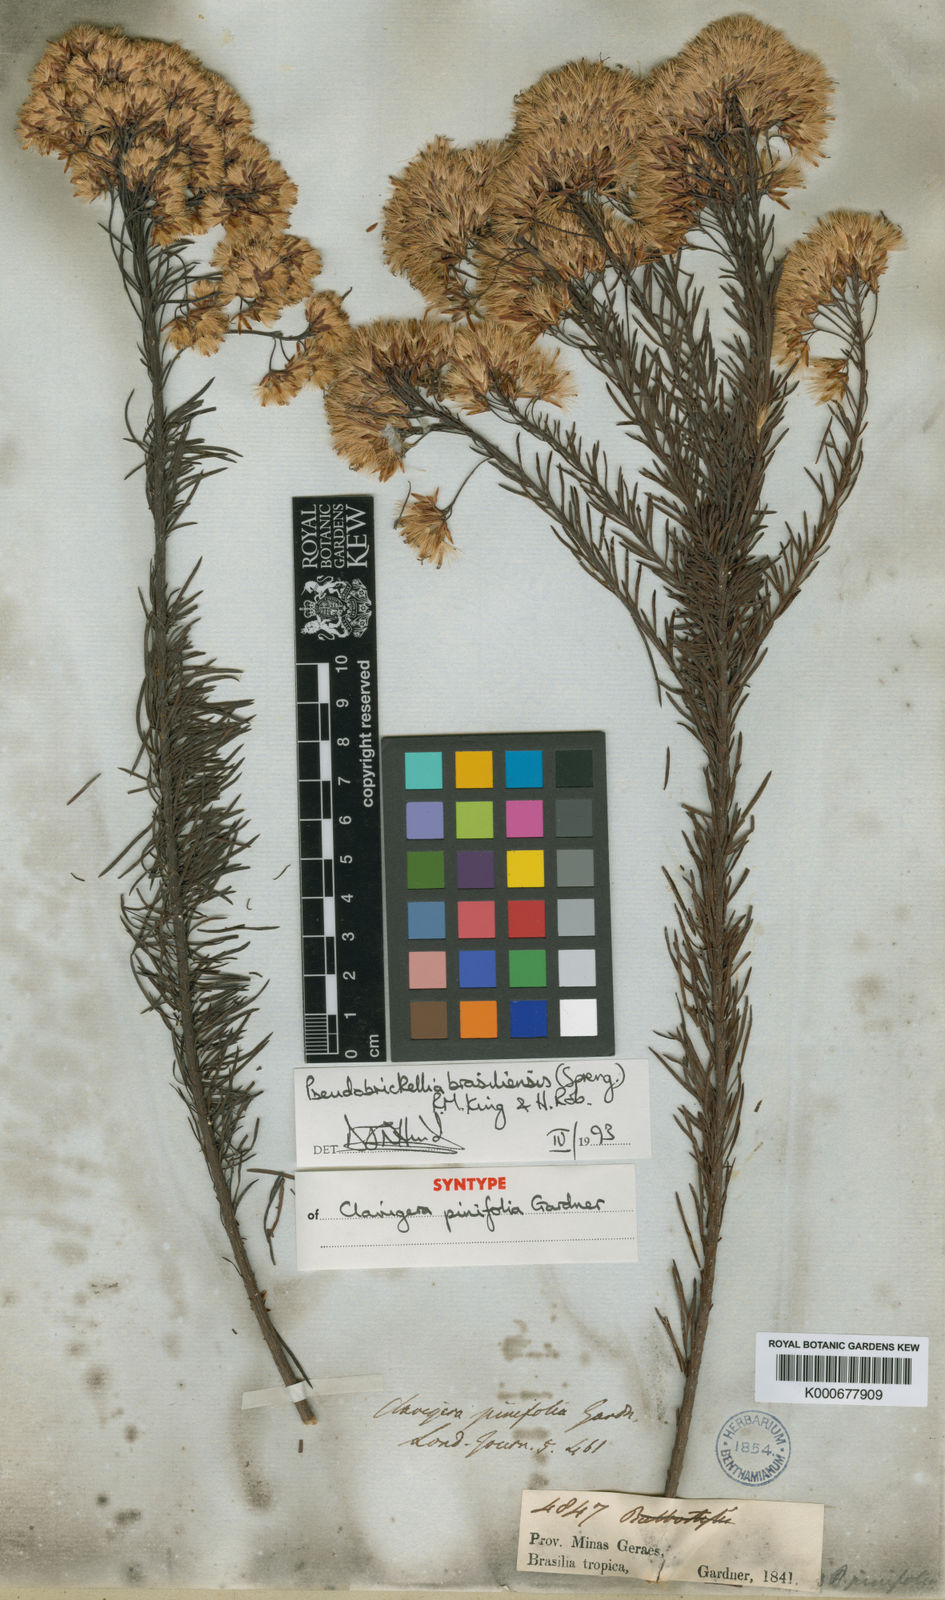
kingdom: Plantae
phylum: Tracheophyta
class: Magnoliopsida
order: Asterales
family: Asteraceae
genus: Pseudobrickellia
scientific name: Pseudobrickellia brasiliensis
